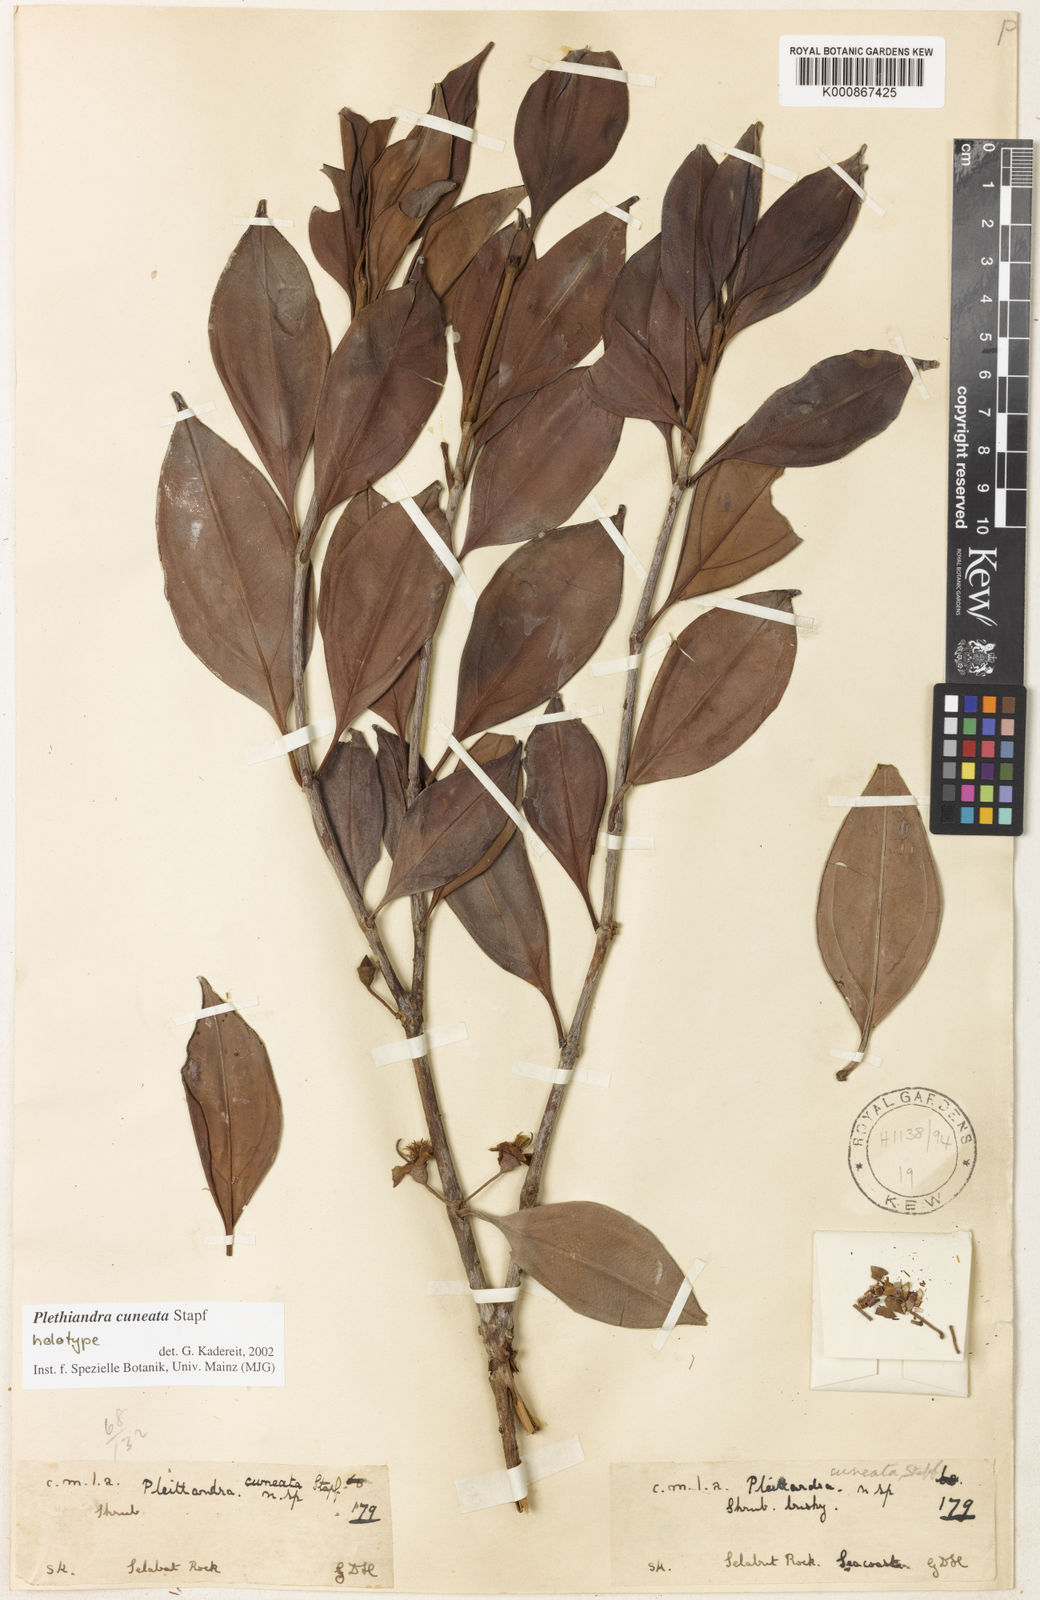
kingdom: Plantae
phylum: Tracheophyta
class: Magnoliopsida
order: Myrtales
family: Melastomataceae
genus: Plethiandra
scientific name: Plethiandra cuneata
